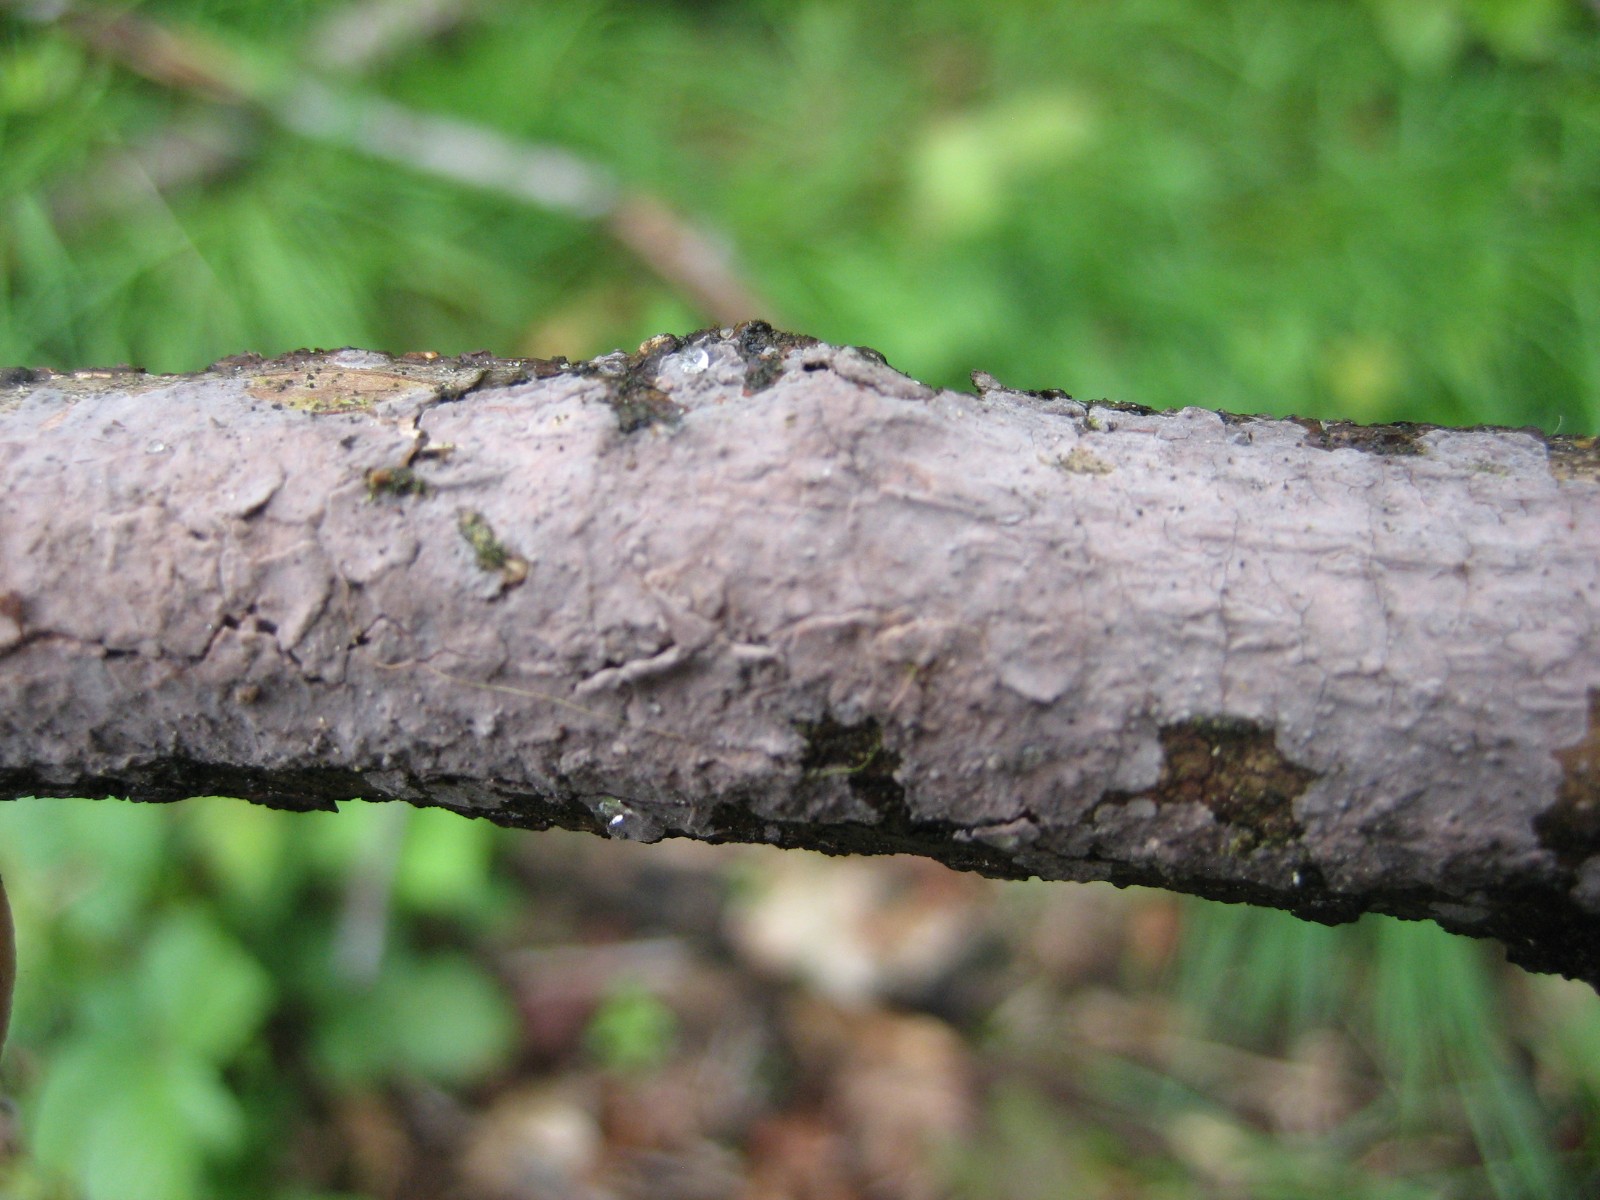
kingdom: Fungi
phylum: Basidiomycota
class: Agaricomycetes
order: Corticiales
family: Corticiaceae
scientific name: Corticiaceae
